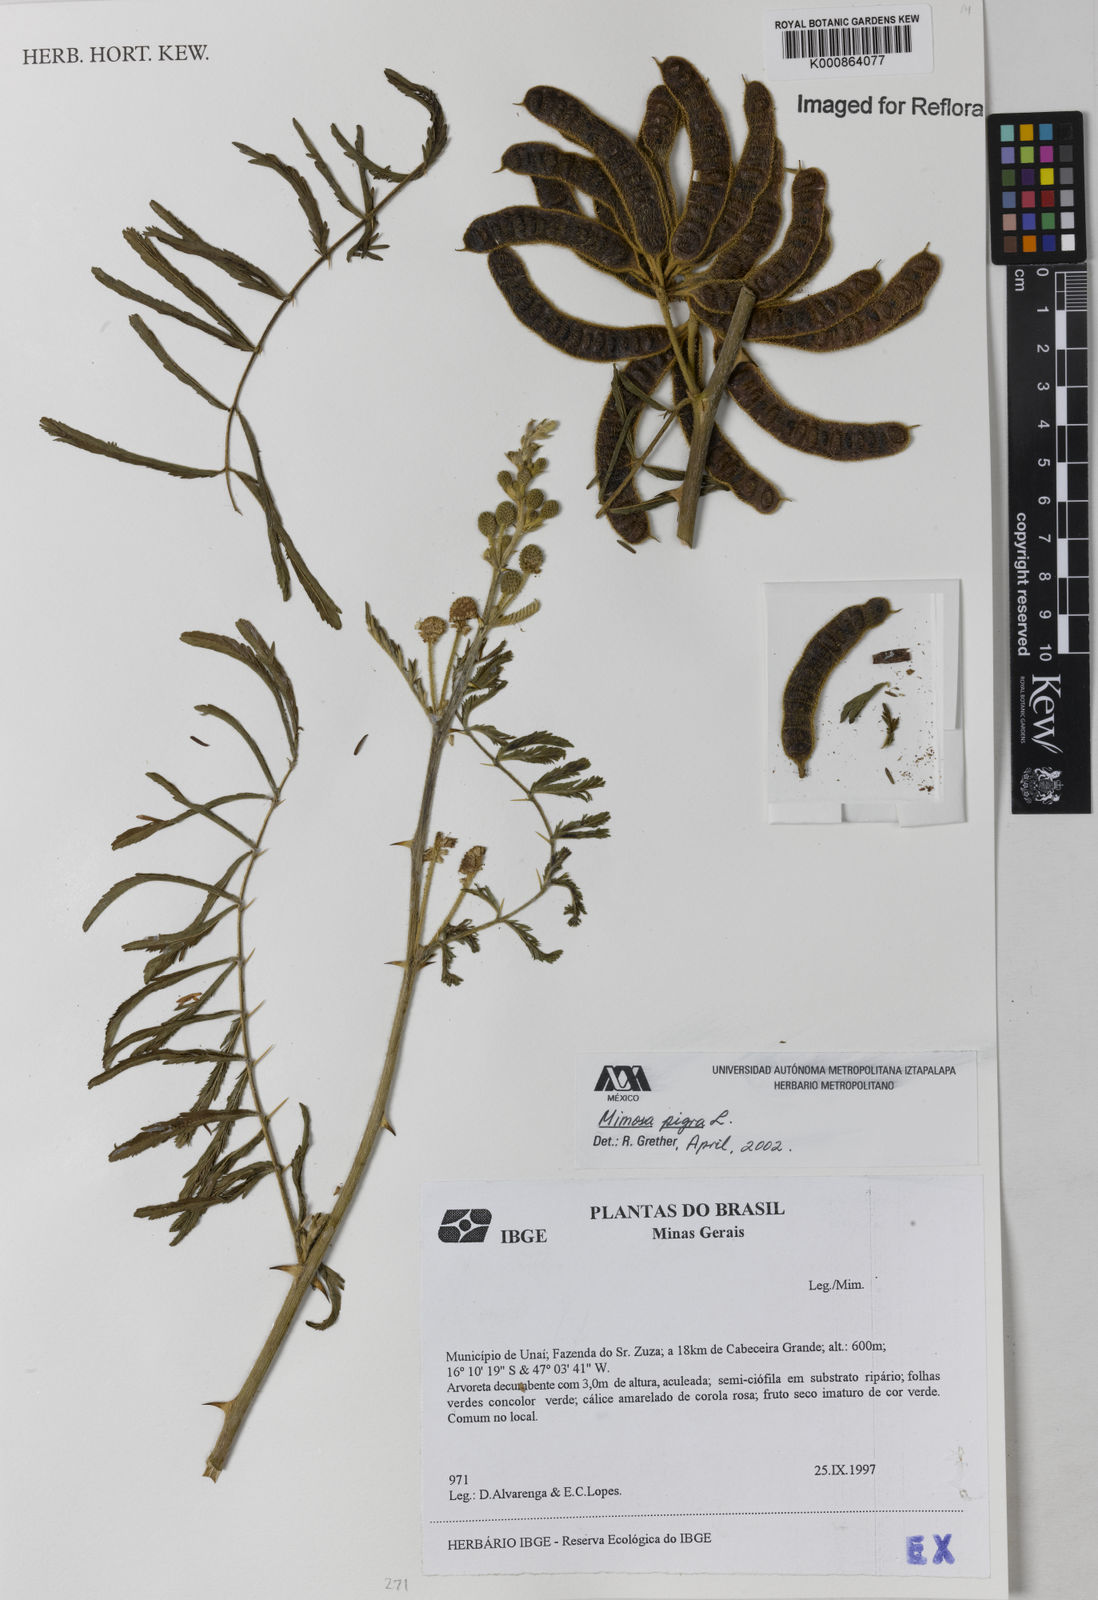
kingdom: Plantae
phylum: Tracheophyta
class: Magnoliopsida
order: Fabales
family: Fabaceae
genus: Mimosa
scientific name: Mimosa pigra
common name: Black mimosa
